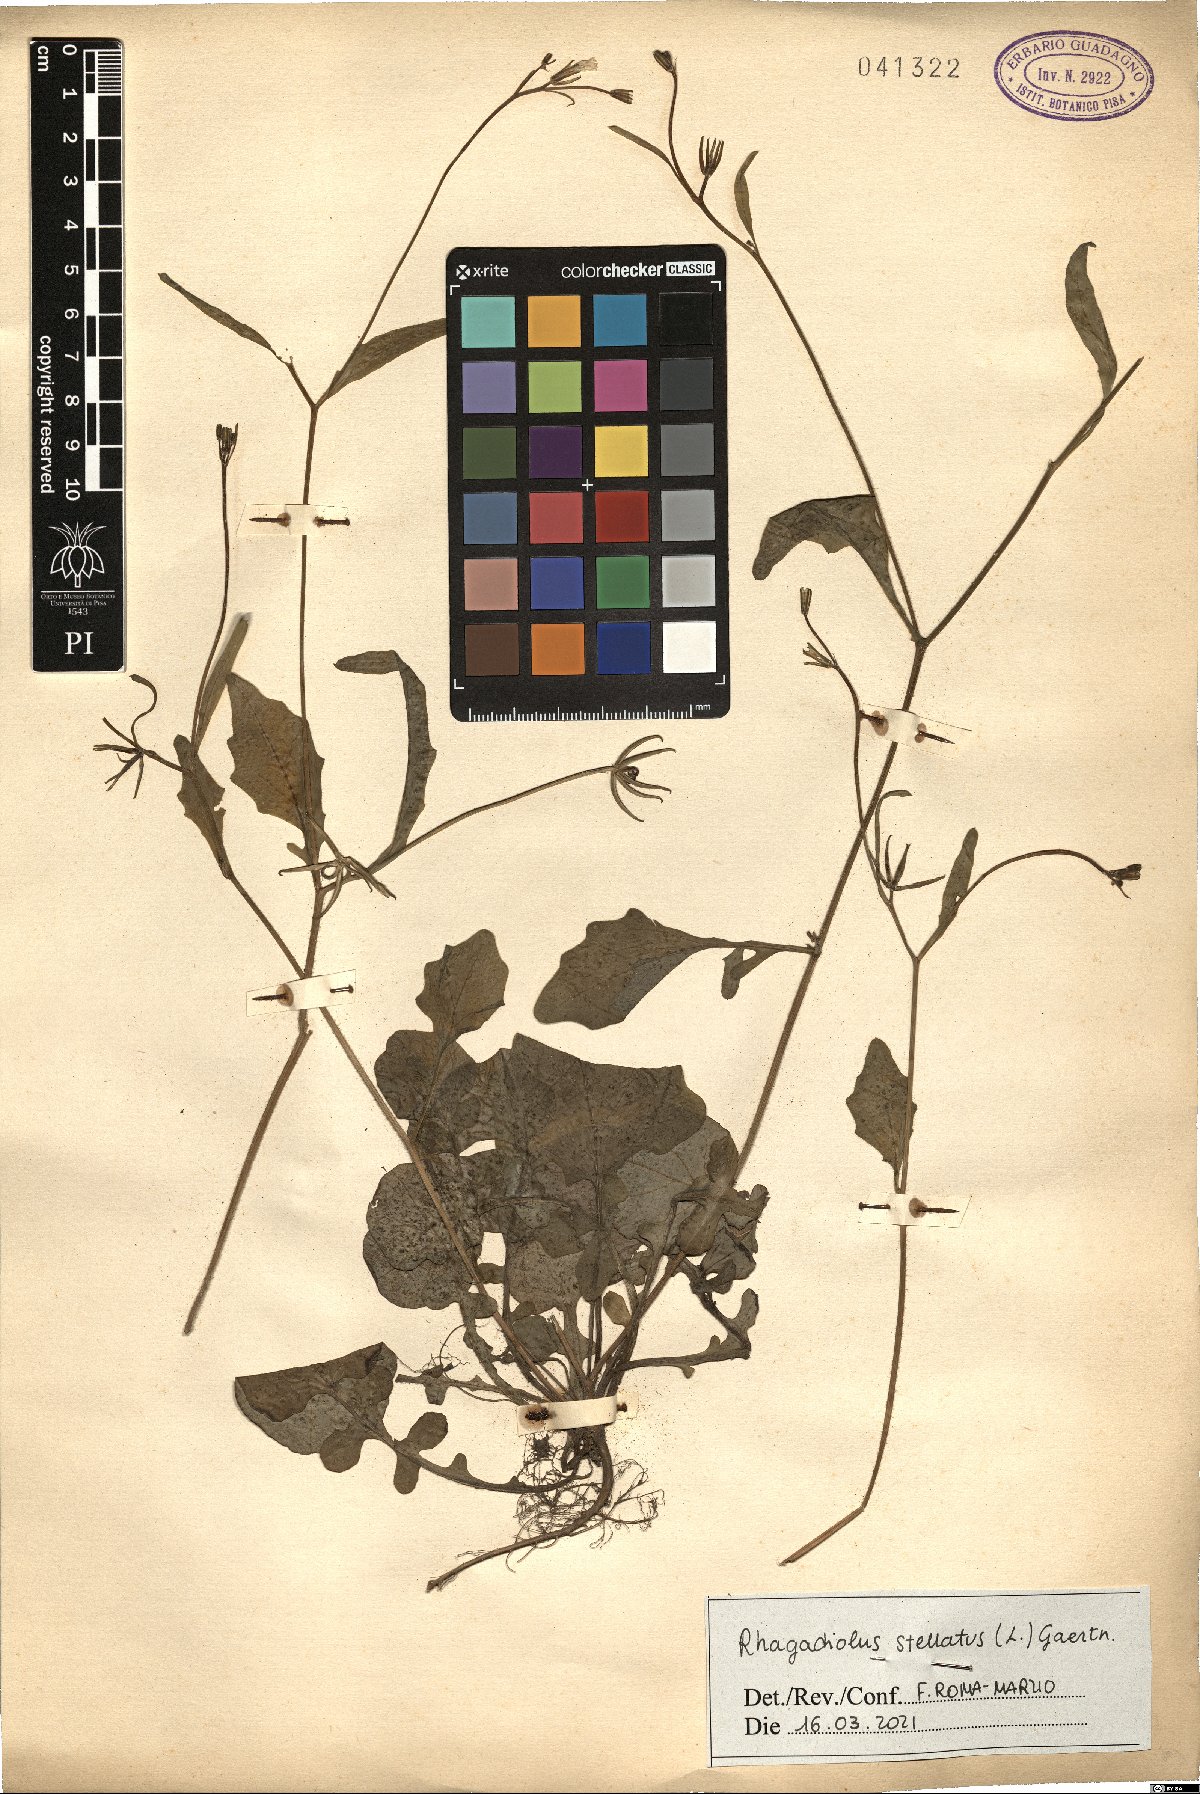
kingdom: Plantae
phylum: Tracheophyta
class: Magnoliopsida
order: Asterales
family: Asteraceae
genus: Rhagadiolus
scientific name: Rhagadiolus stellatus
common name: Star hawkbit
